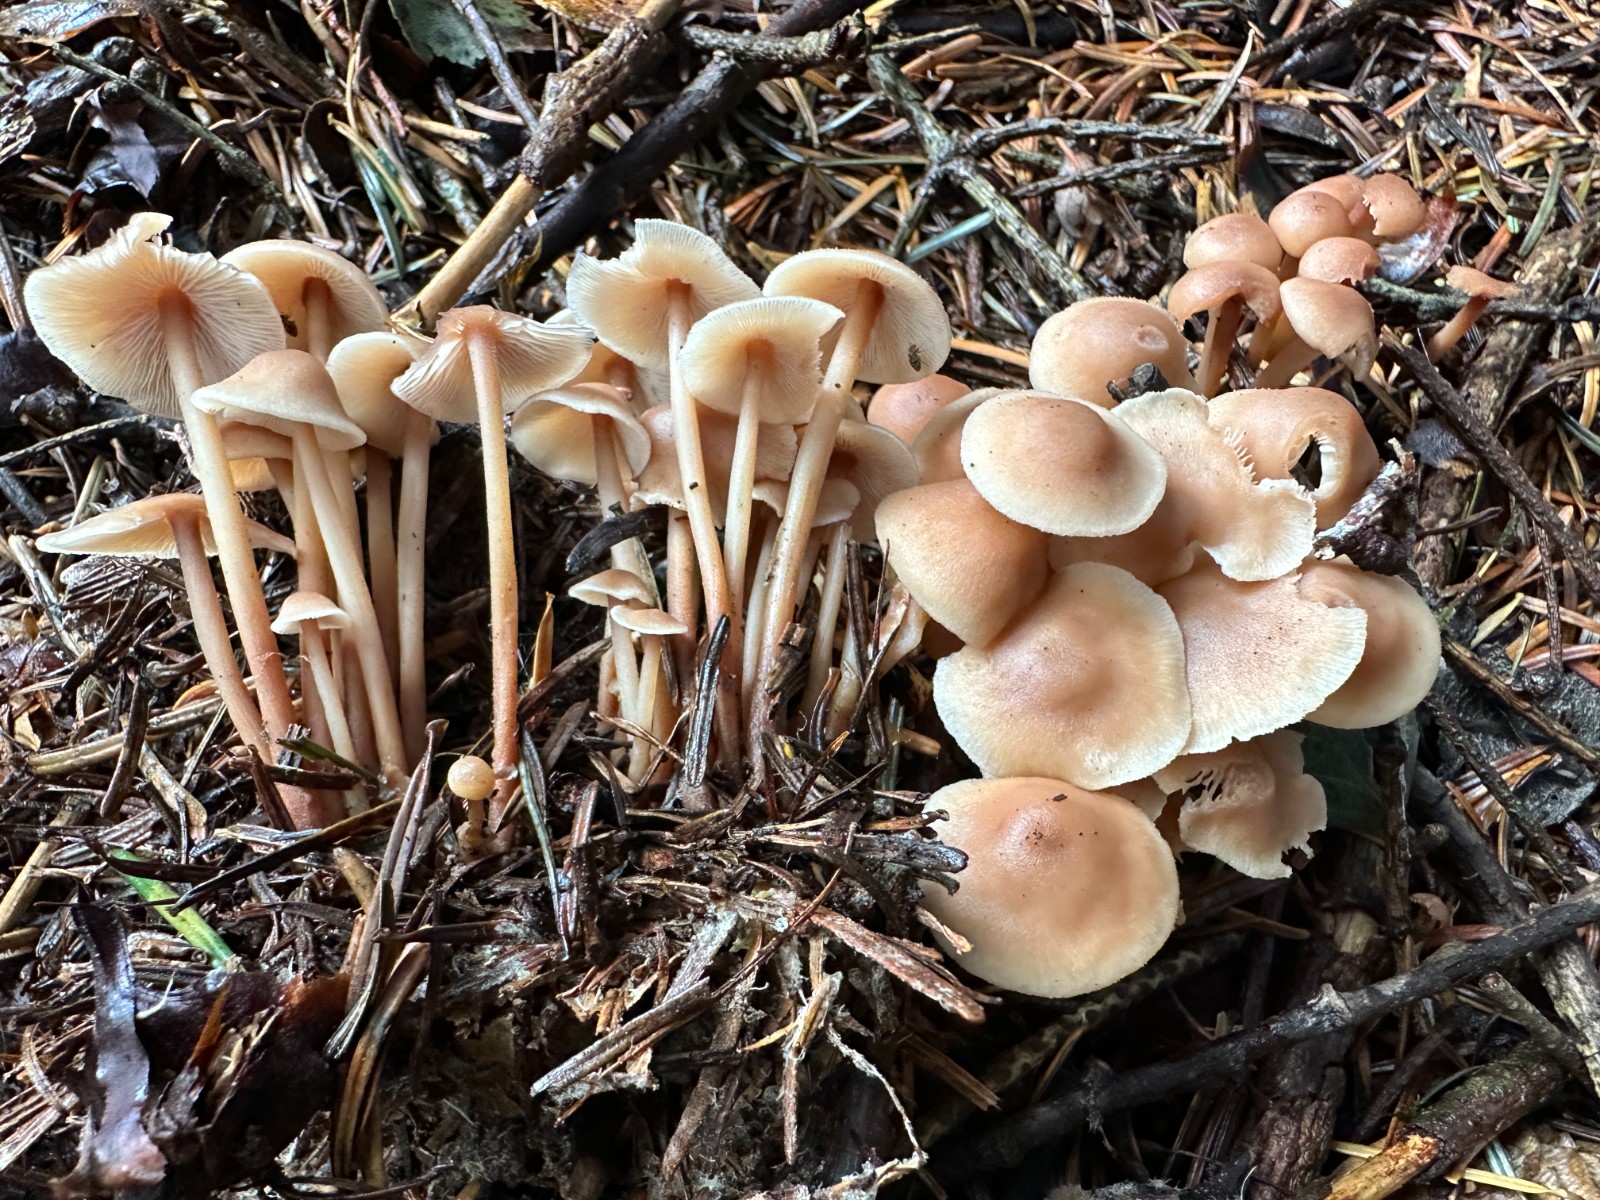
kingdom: Fungi
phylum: Basidiomycota
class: Agaricomycetes
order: Agaricales
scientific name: Agaricales
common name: champignonordenen
